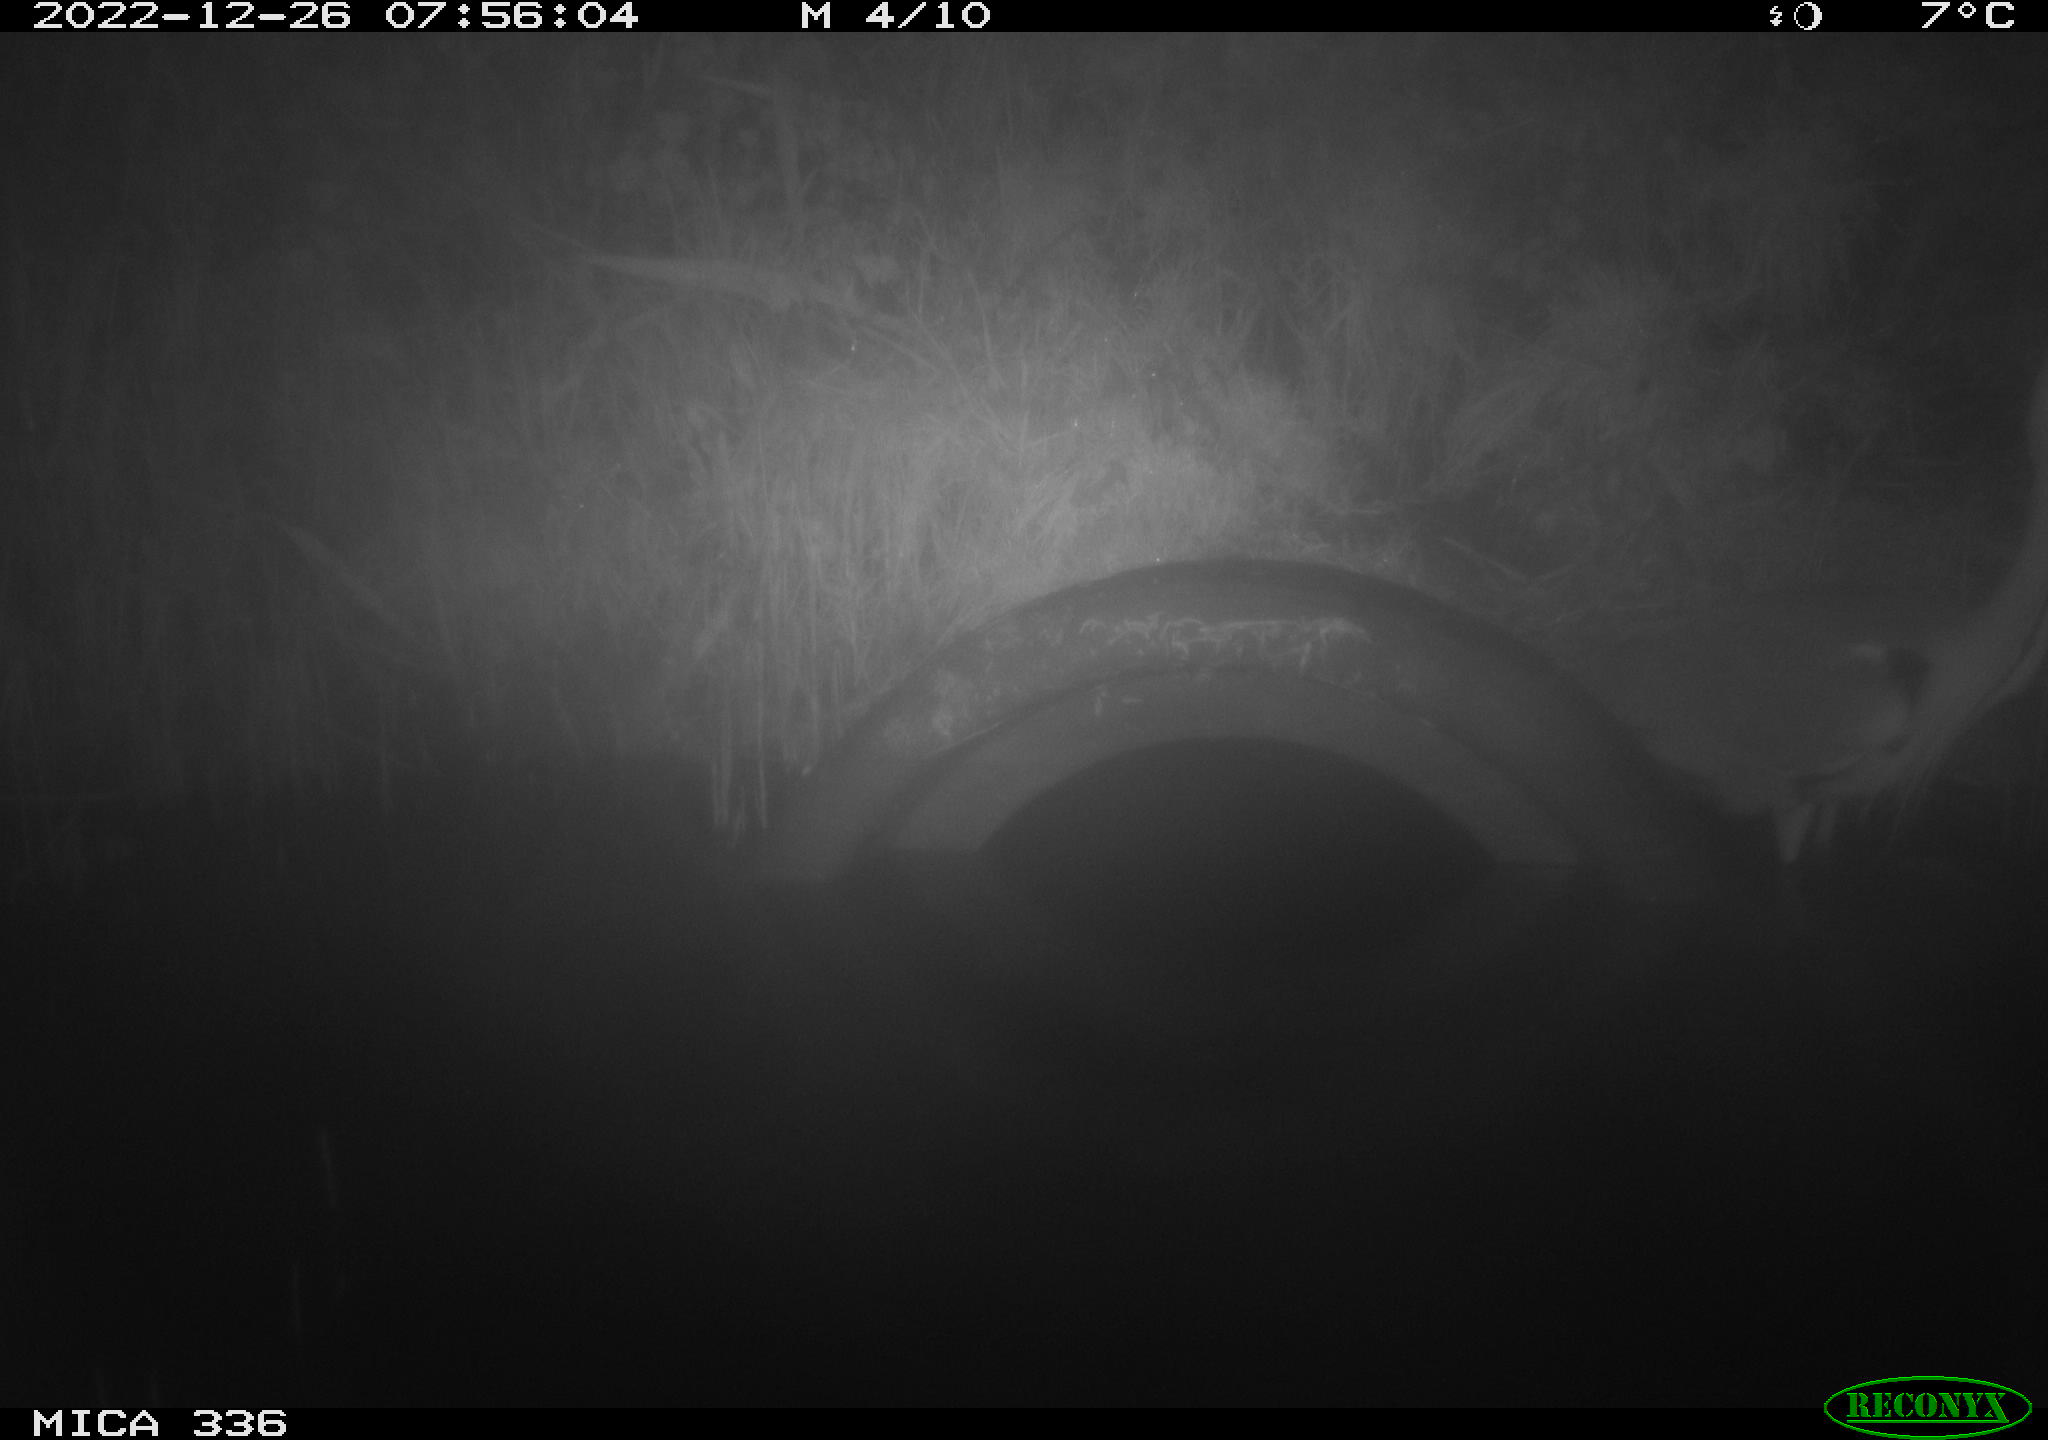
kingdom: Animalia
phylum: Chordata
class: Aves
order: Pelecaniformes
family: Ardeidae
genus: Ardea
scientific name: Ardea cinerea
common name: Grey heron
